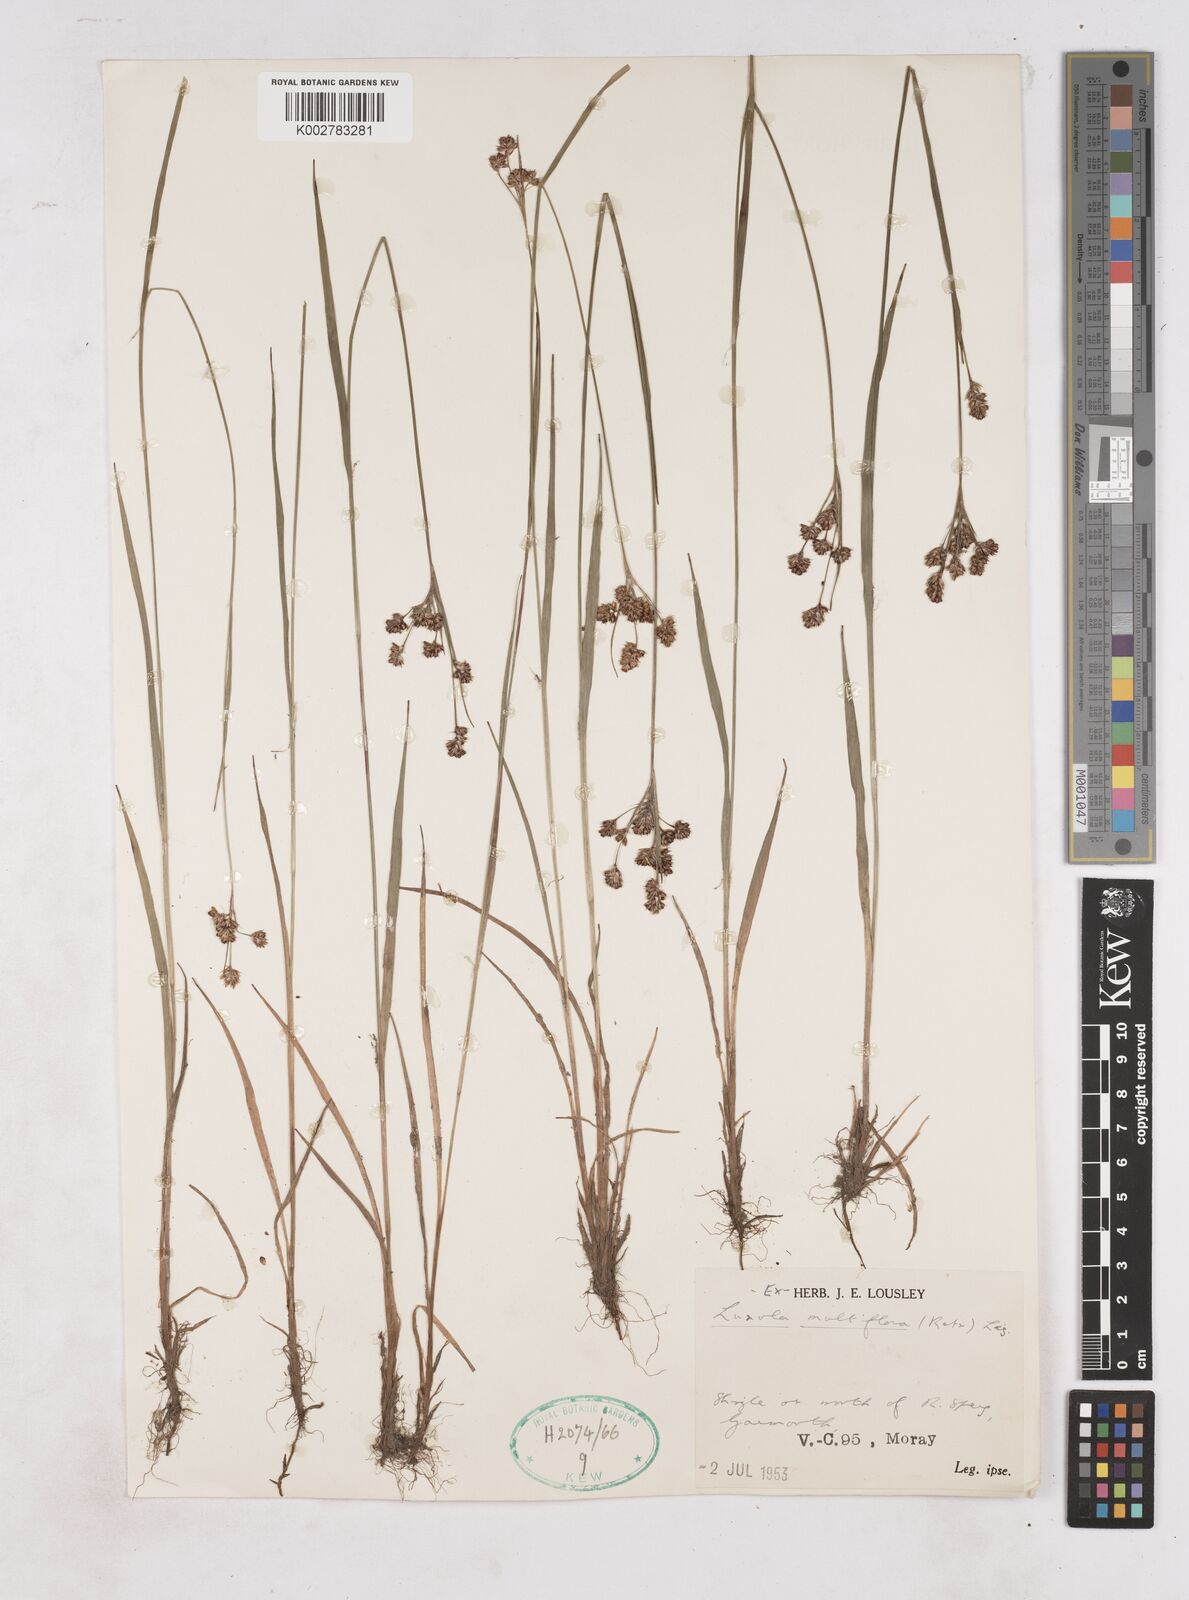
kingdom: Plantae
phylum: Tracheophyta
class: Liliopsida
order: Poales
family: Juncaceae
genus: Luzula
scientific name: Luzula multiflora
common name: Heath wood-rush
